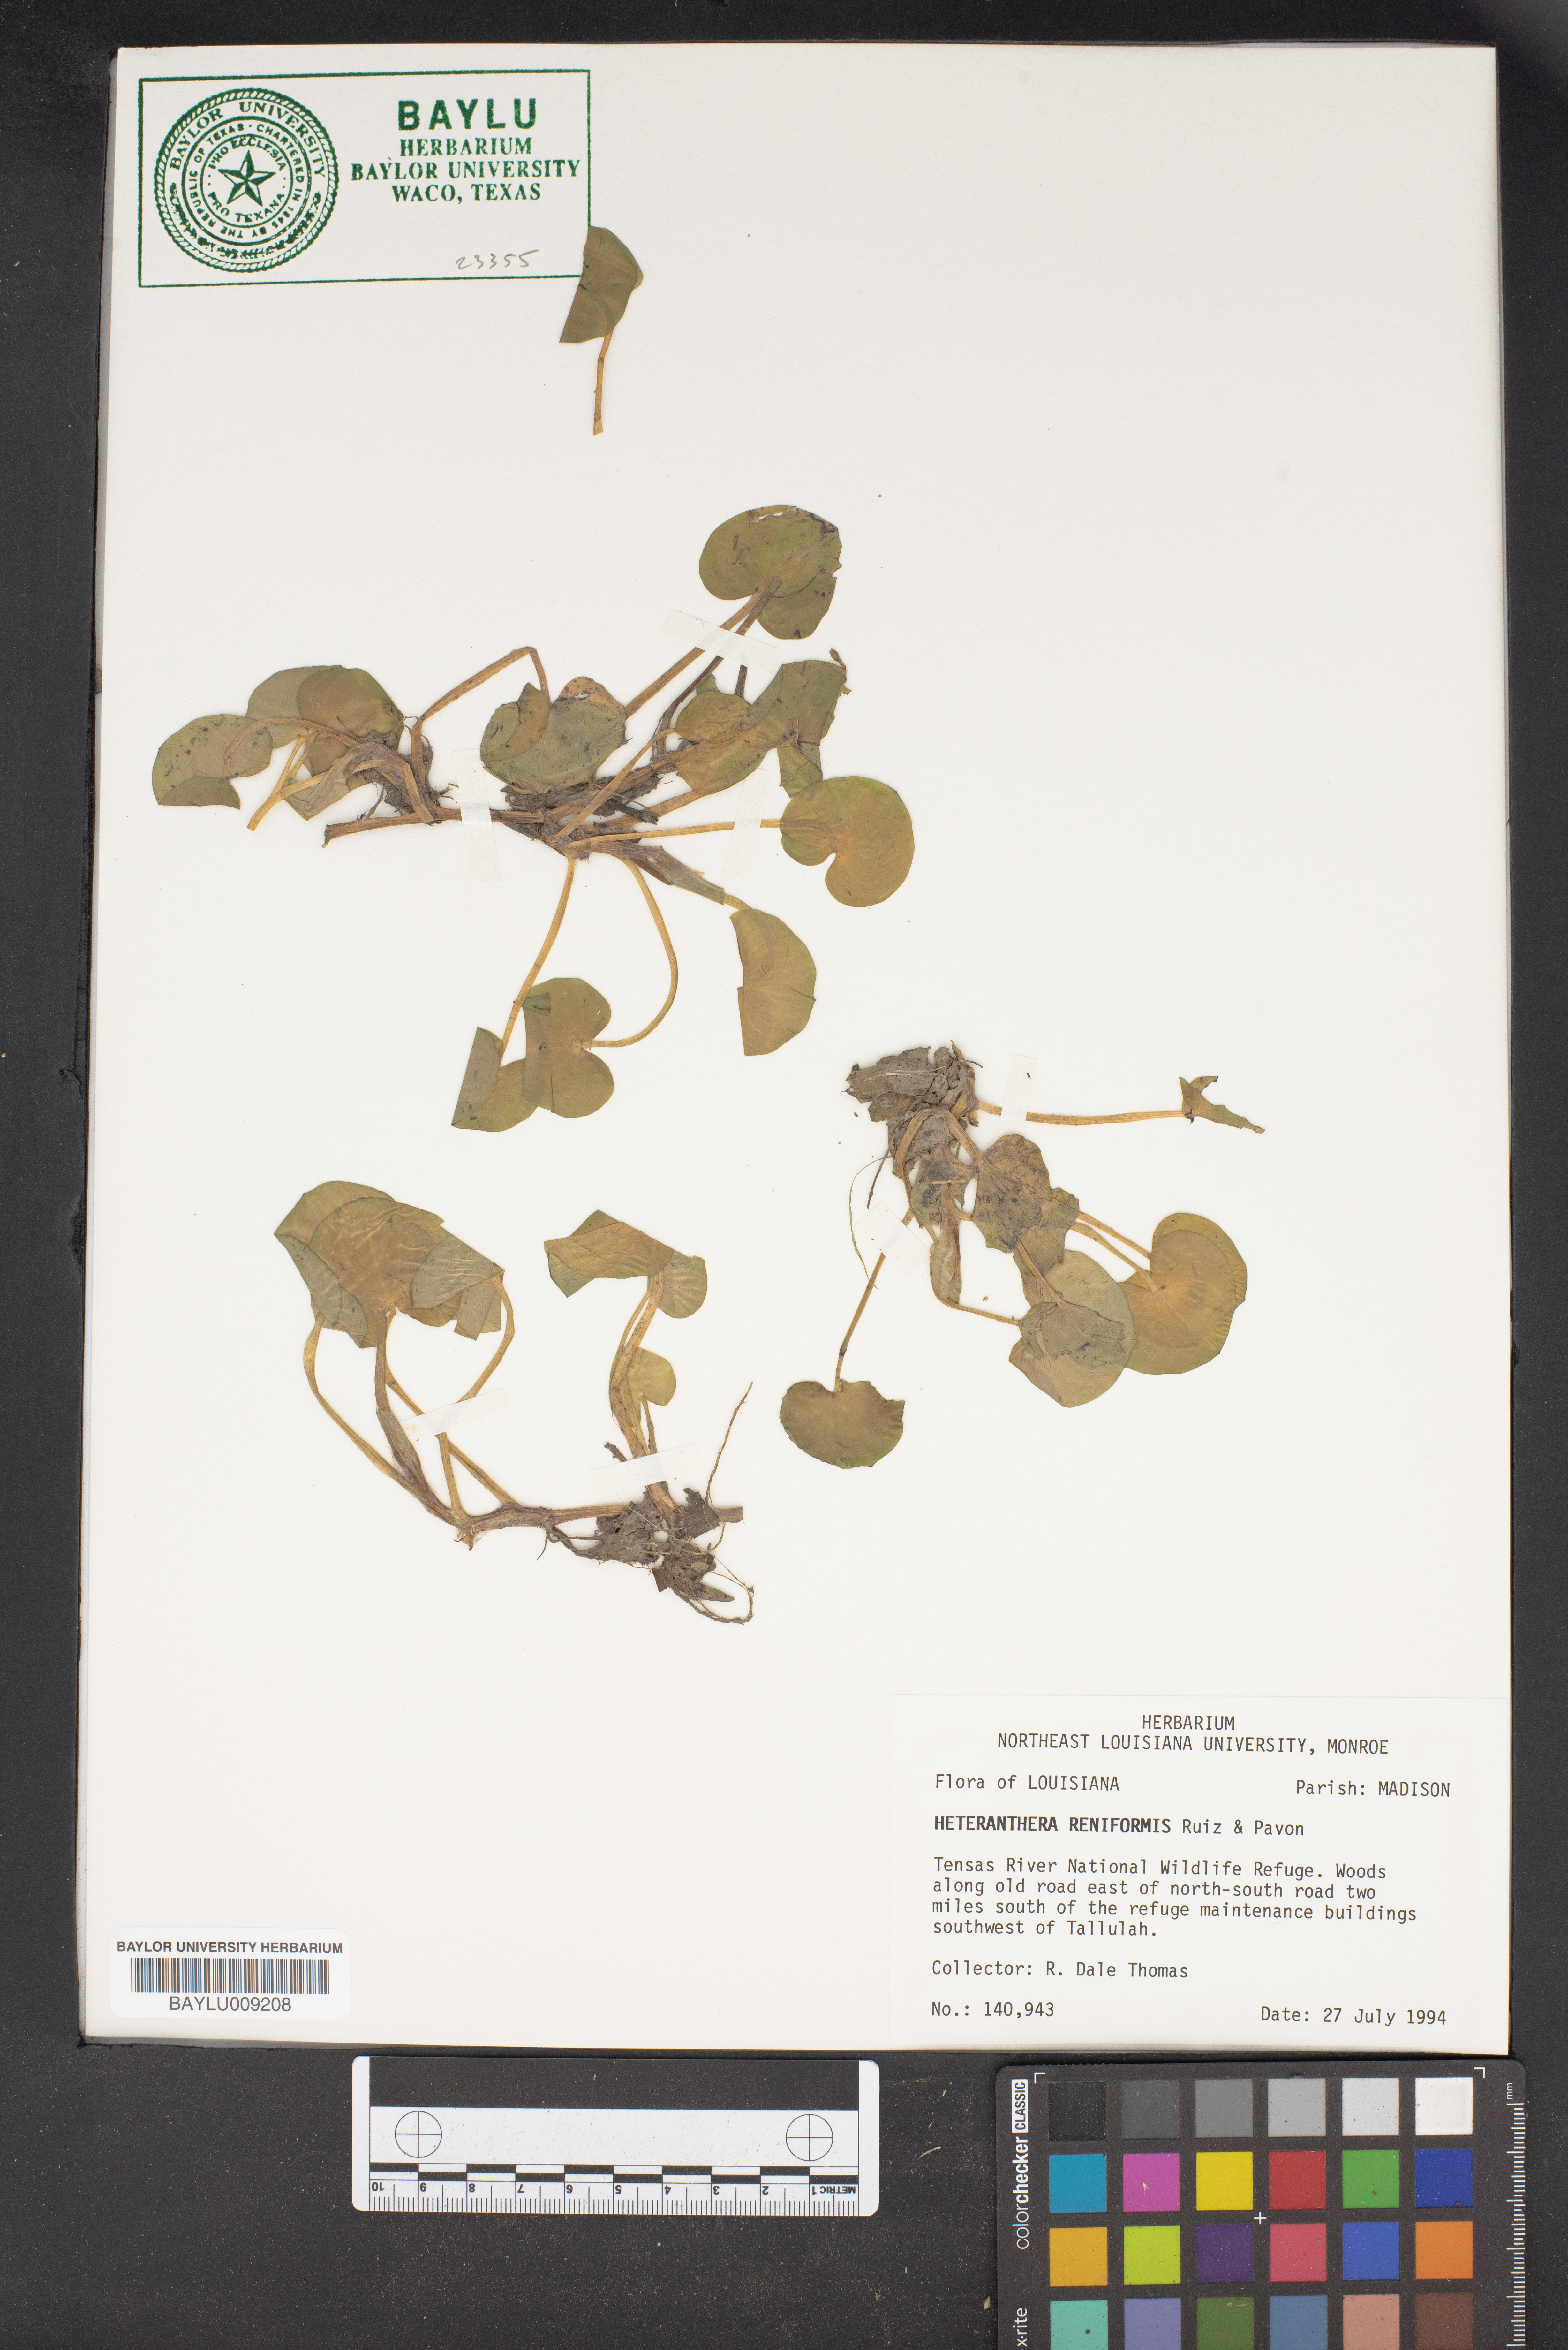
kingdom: Plantae
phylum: Tracheophyta
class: Liliopsida
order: Commelinales
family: Pontederiaceae
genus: Heteranthera
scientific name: Heteranthera reniformis
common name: Kidneyleaf mudplantain
